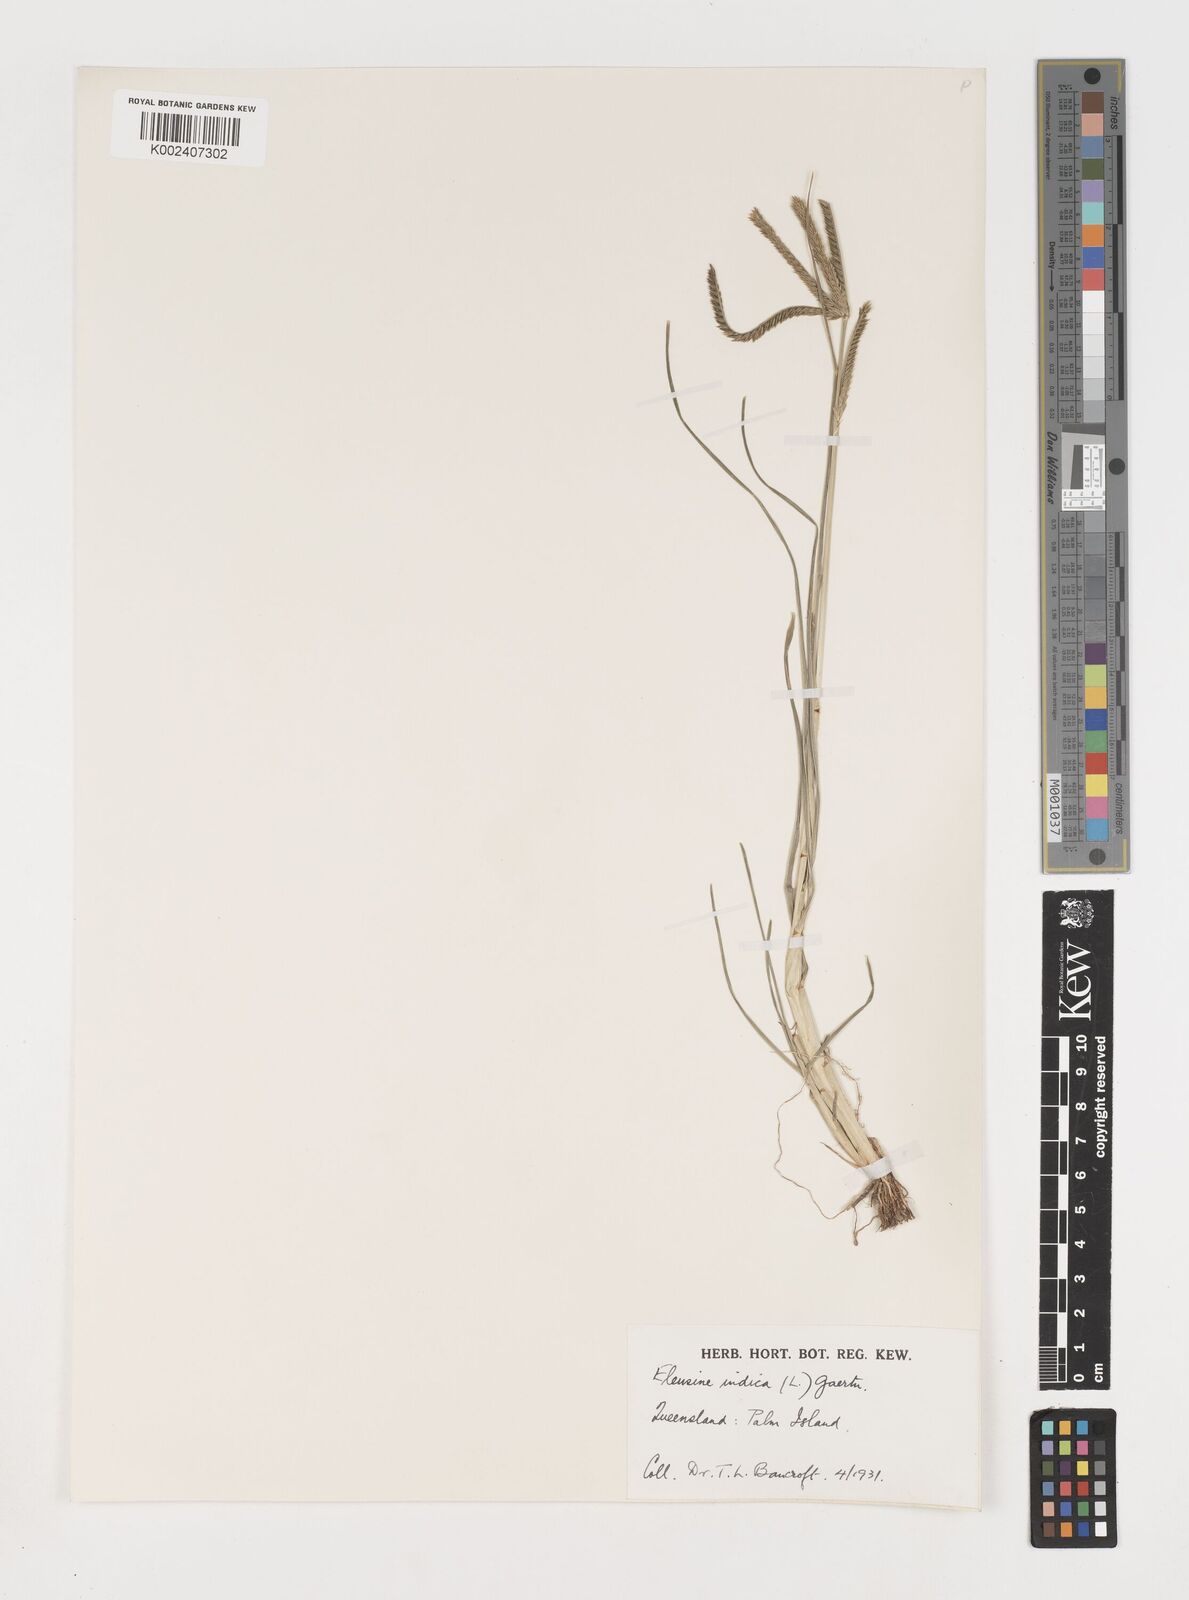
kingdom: Plantae
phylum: Tracheophyta
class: Liliopsida
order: Poales
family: Poaceae
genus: Eleusine
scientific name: Eleusine indica
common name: Yard-grass
